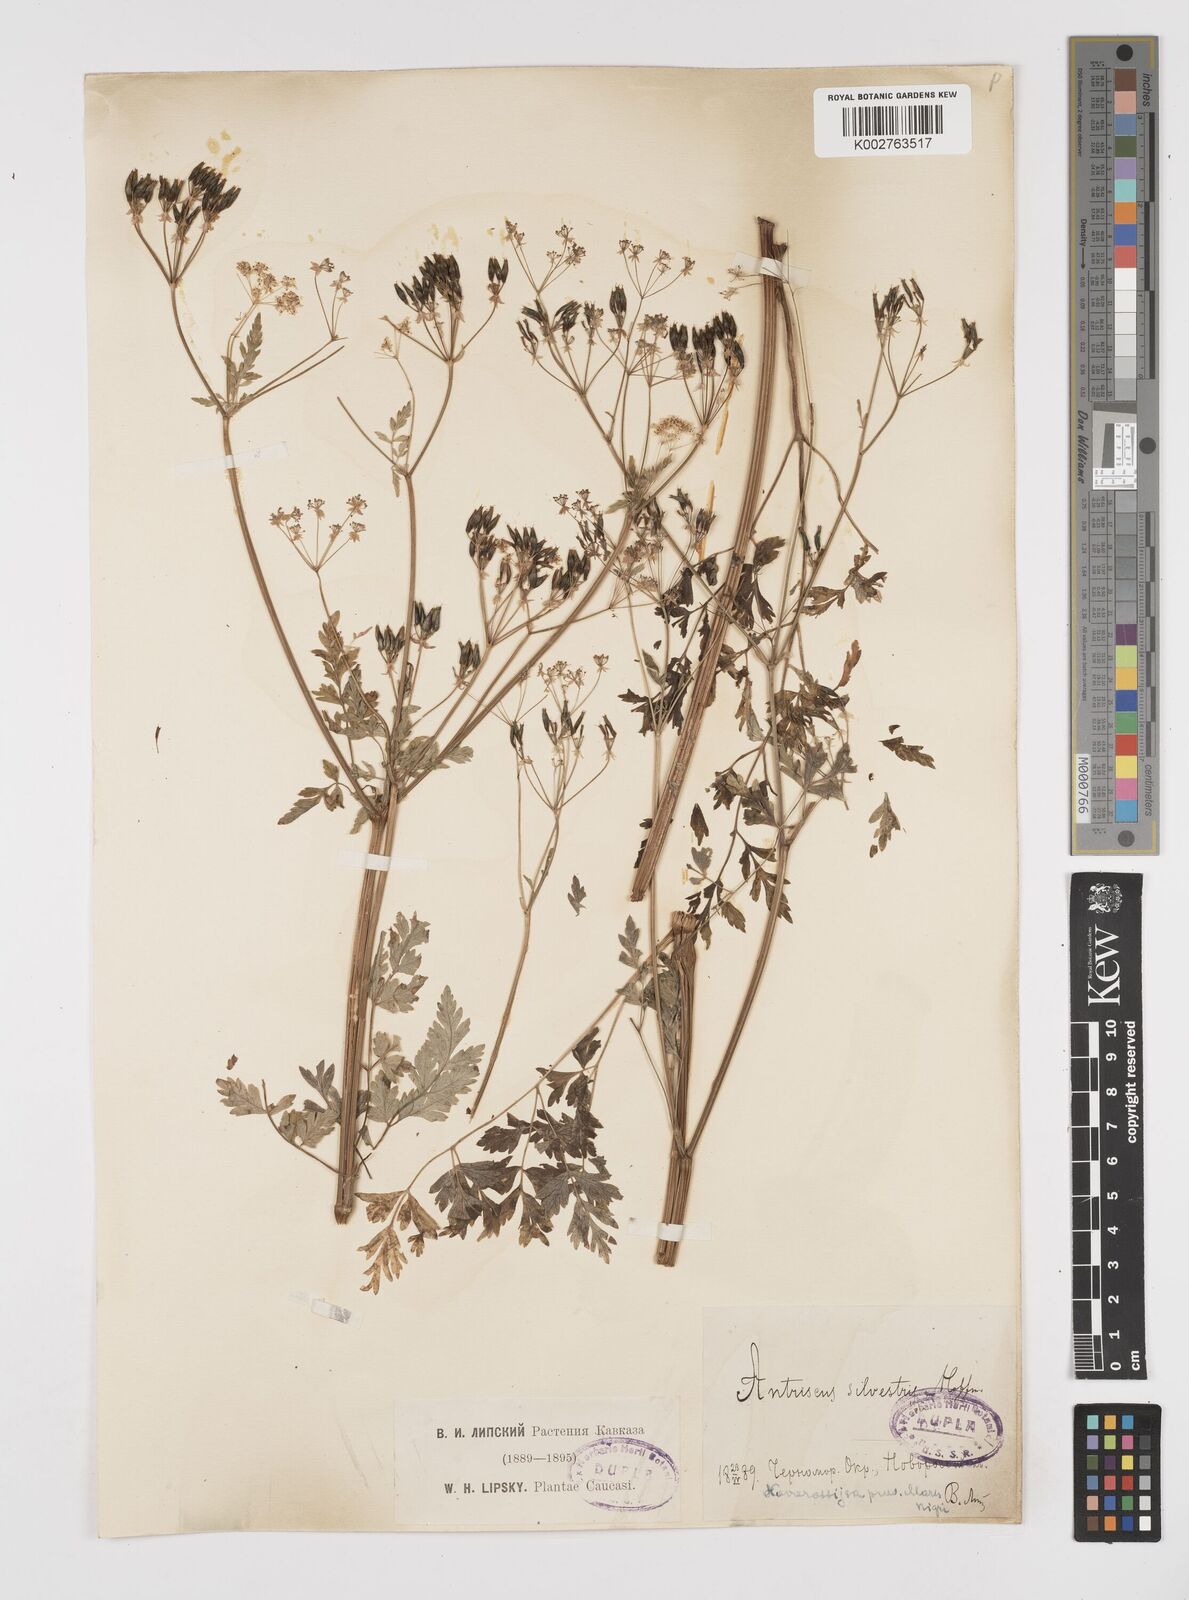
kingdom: Plantae
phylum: Tracheophyta
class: Magnoliopsida
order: Apiales
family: Apiaceae
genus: Anthriscus
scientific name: Anthriscus sylvestris
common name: Cow parsley
